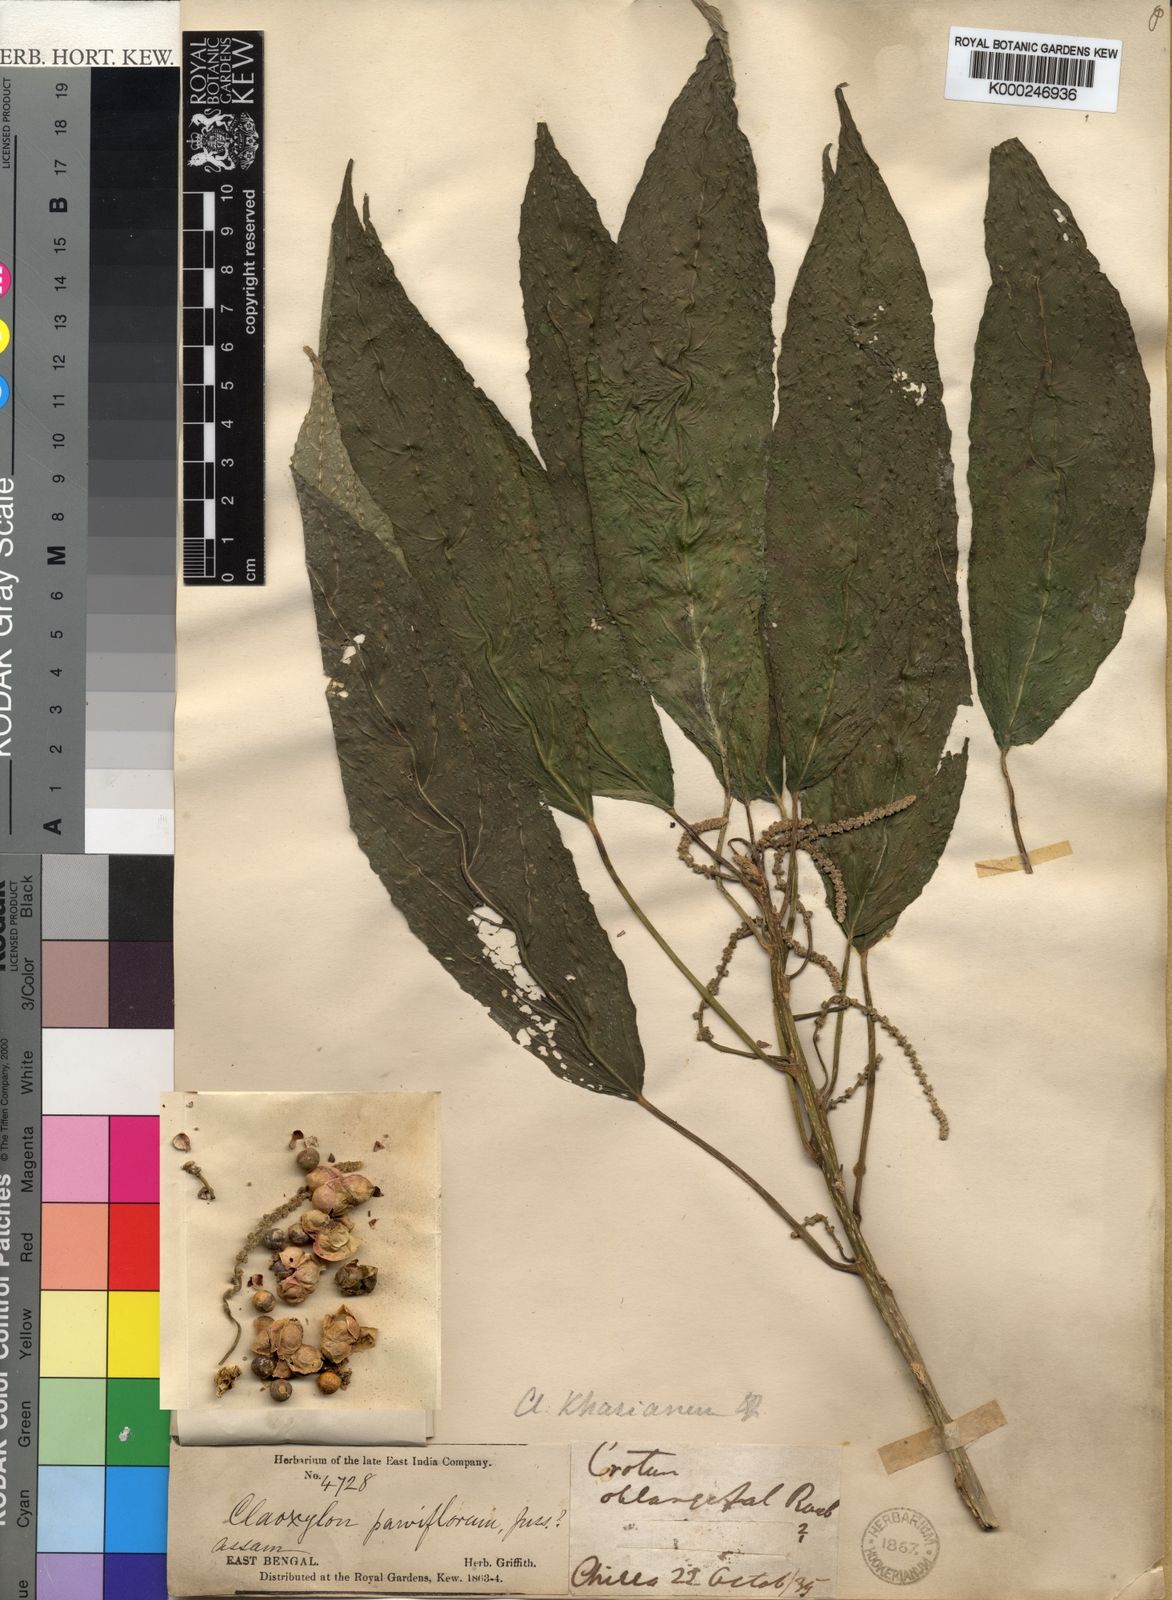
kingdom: Plantae
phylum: Tracheophyta
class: Magnoliopsida
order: Malpighiales
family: Euphorbiaceae
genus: Claoxylon
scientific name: Claoxylon khasianum
